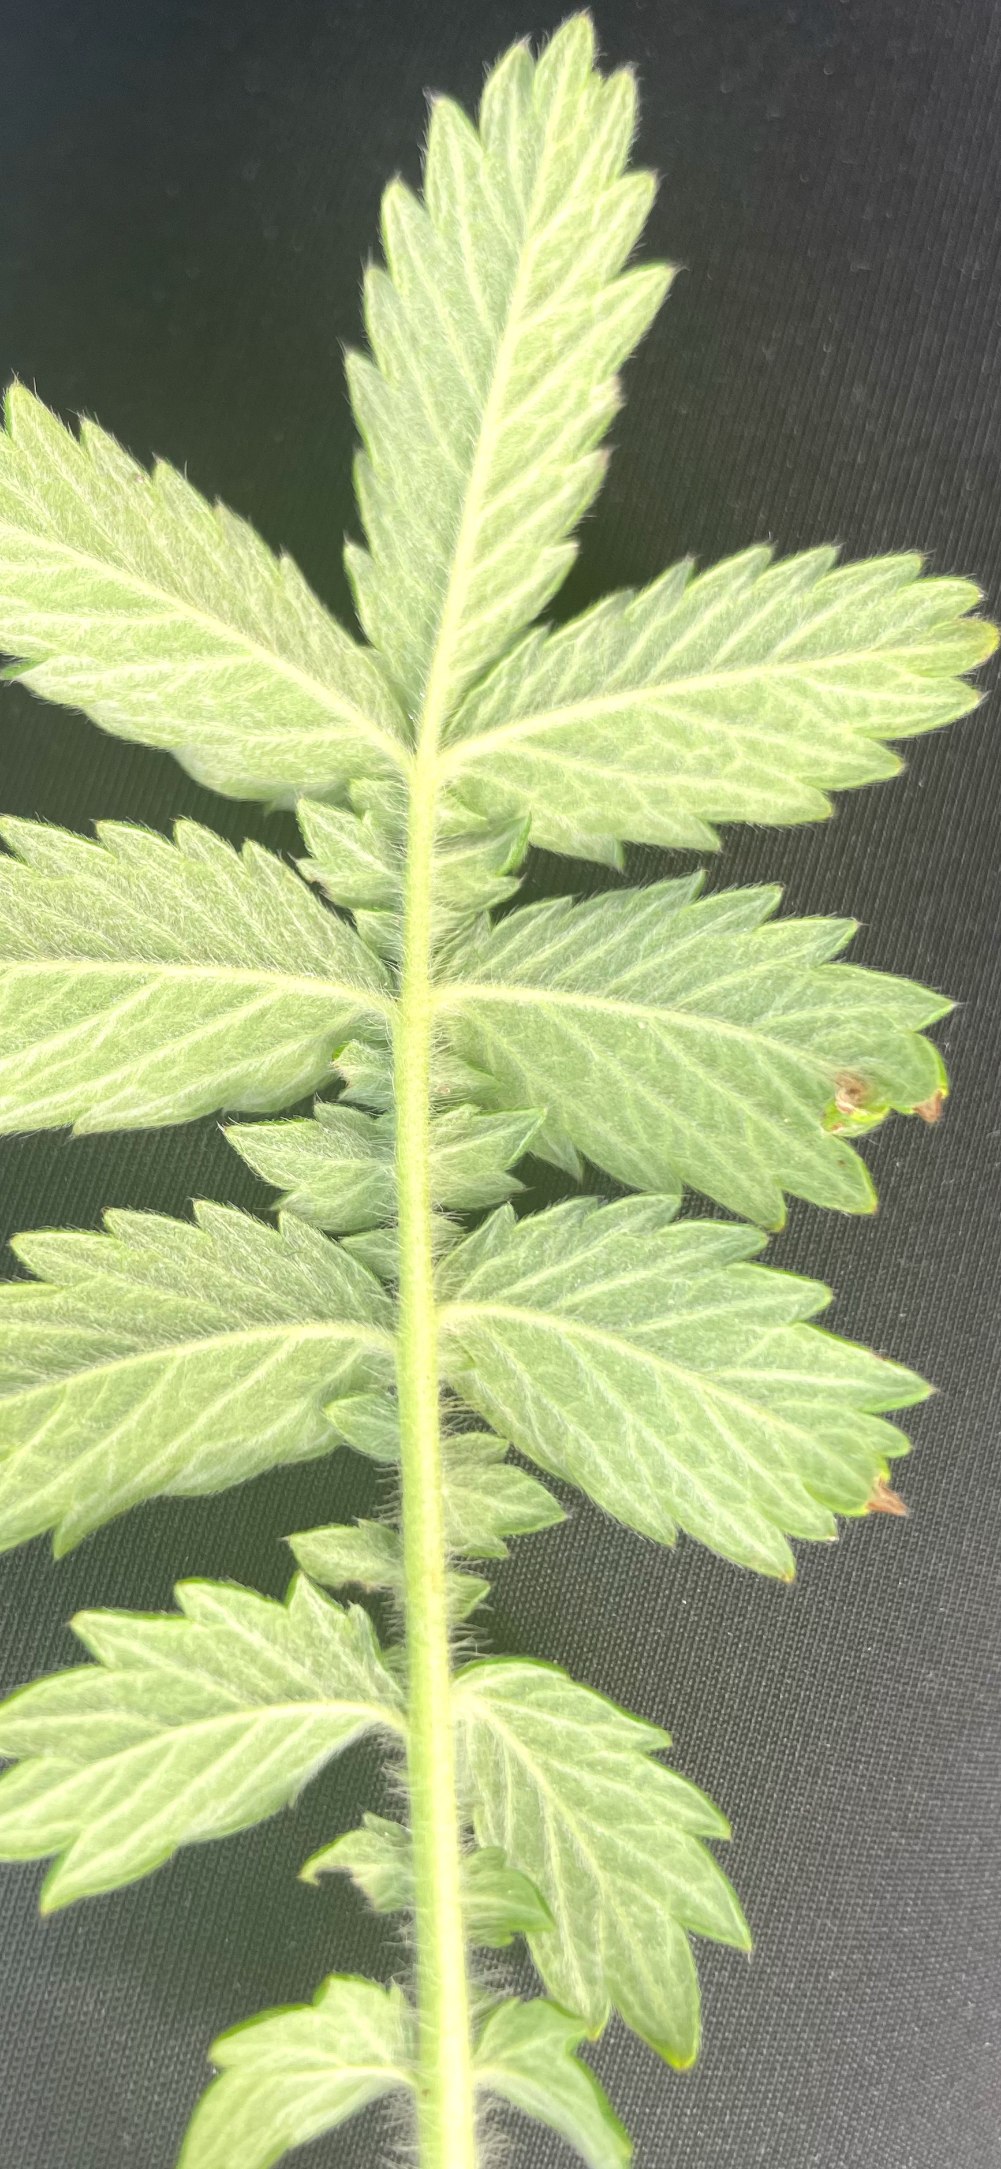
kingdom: Plantae
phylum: Tracheophyta
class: Magnoliopsida
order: Rosales
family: Rosaceae
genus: Agrimonia
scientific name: Agrimonia eupatoria
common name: Almindelig agermåne
